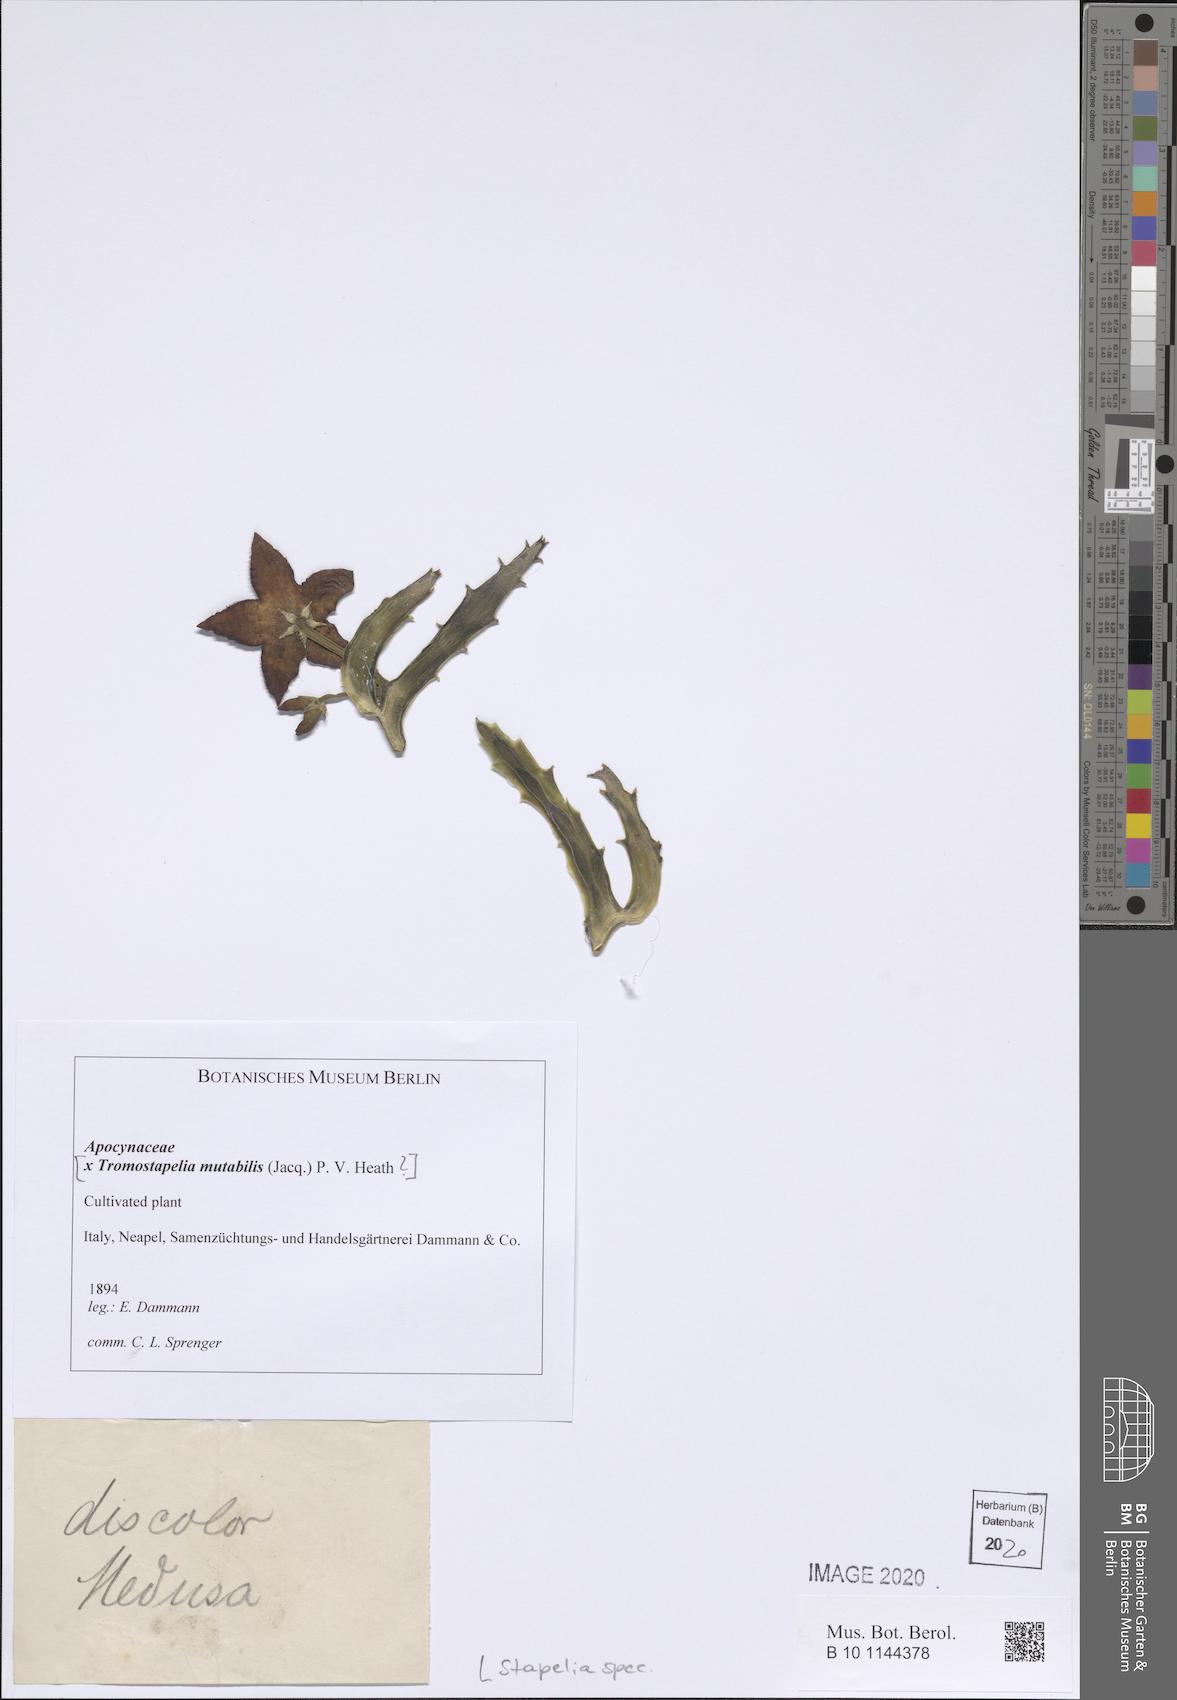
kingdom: Plantae
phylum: Tracheophyta
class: Magnoliopsida
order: Gentianales
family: Apocynaceae
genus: Stapelia
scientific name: Stapelia
